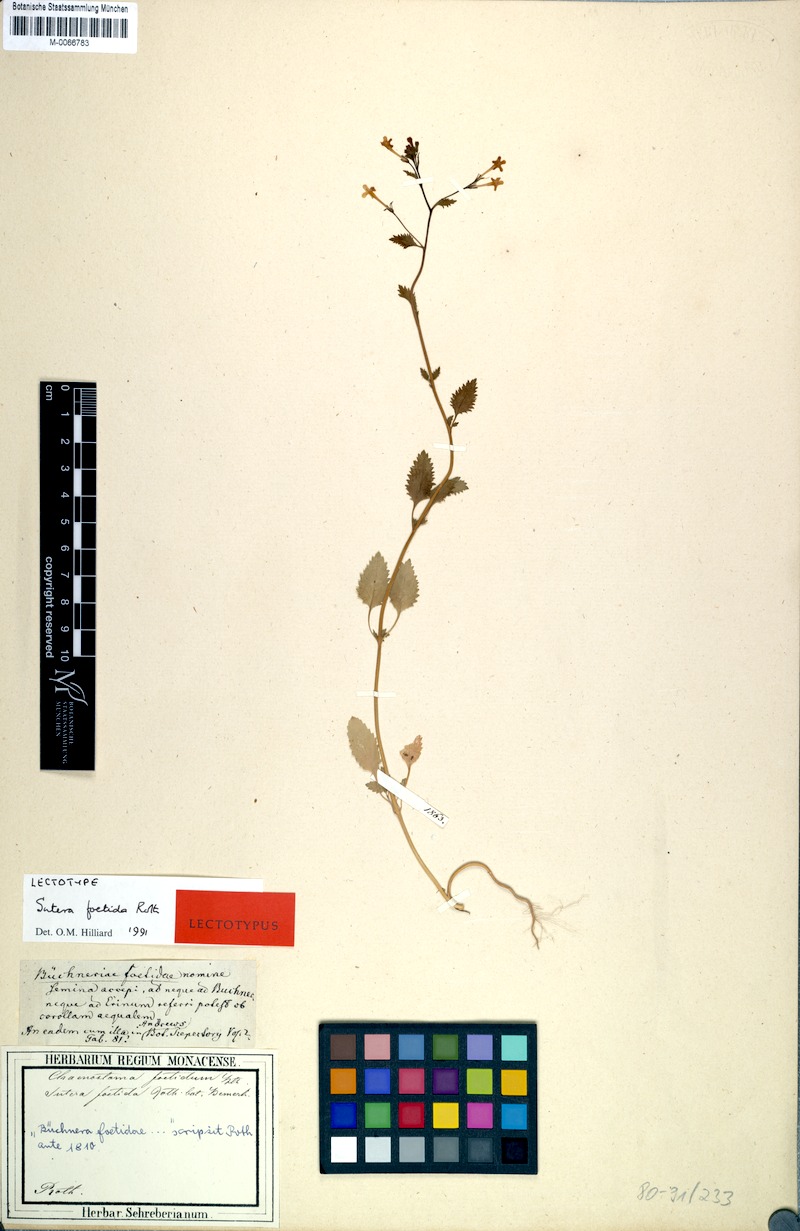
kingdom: Plantae
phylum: Tracheophyta
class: Magnoliopsida
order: Lamiales
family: Scrophulariaceae
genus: Sutera
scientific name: Sutera foetida
